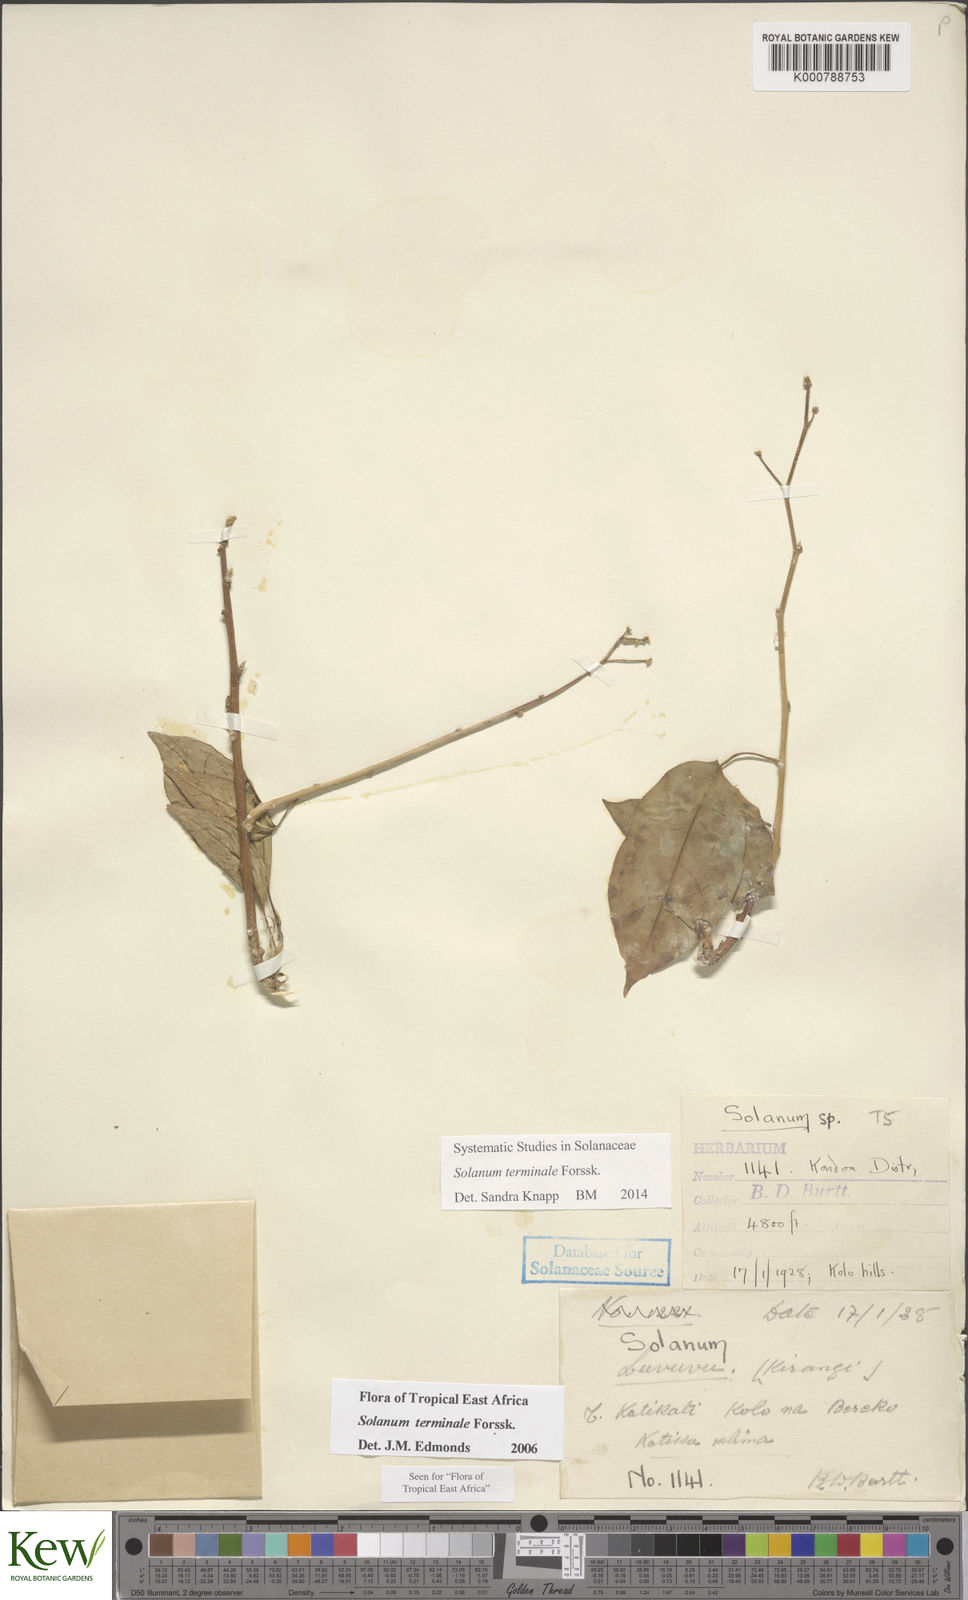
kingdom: Plantae
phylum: Tracheophyta
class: Magnoliopsida
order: Solanales
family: Solanaceae
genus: Solanum
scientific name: Solanum terminale
